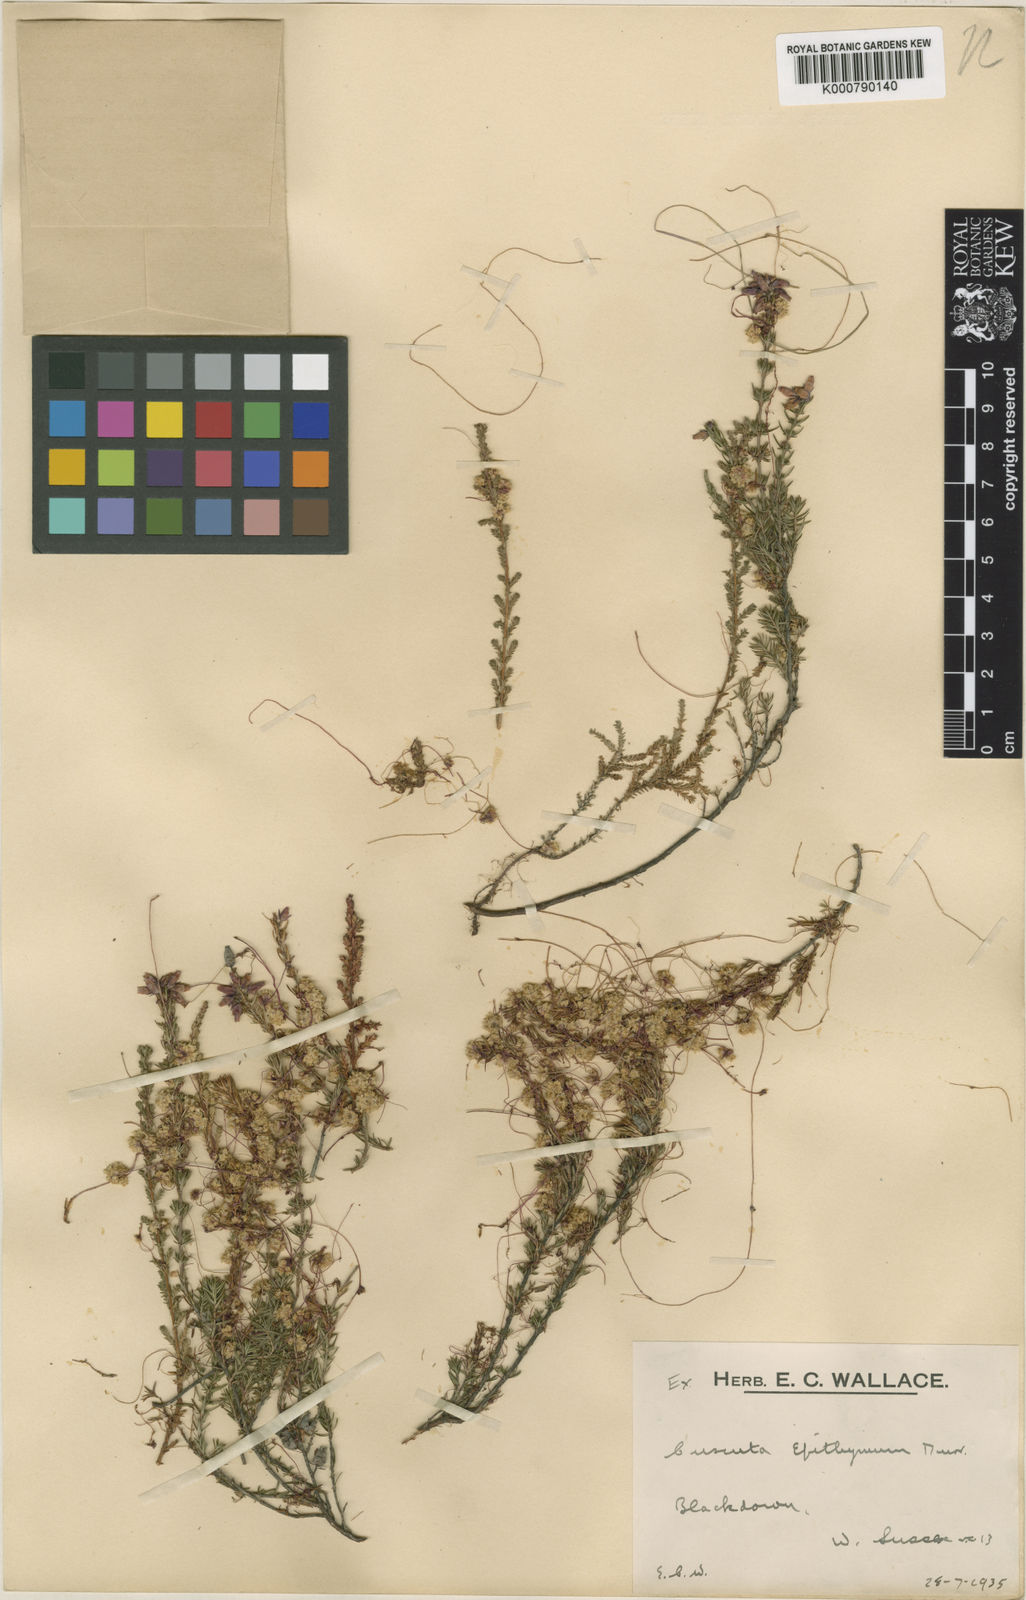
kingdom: Plantae
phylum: Tracheophyta
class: Magnoliopsida
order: Solanales
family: Convolvulaceae
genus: Cuscuta
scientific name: Cuscuta epithymum
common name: Clover dodder
